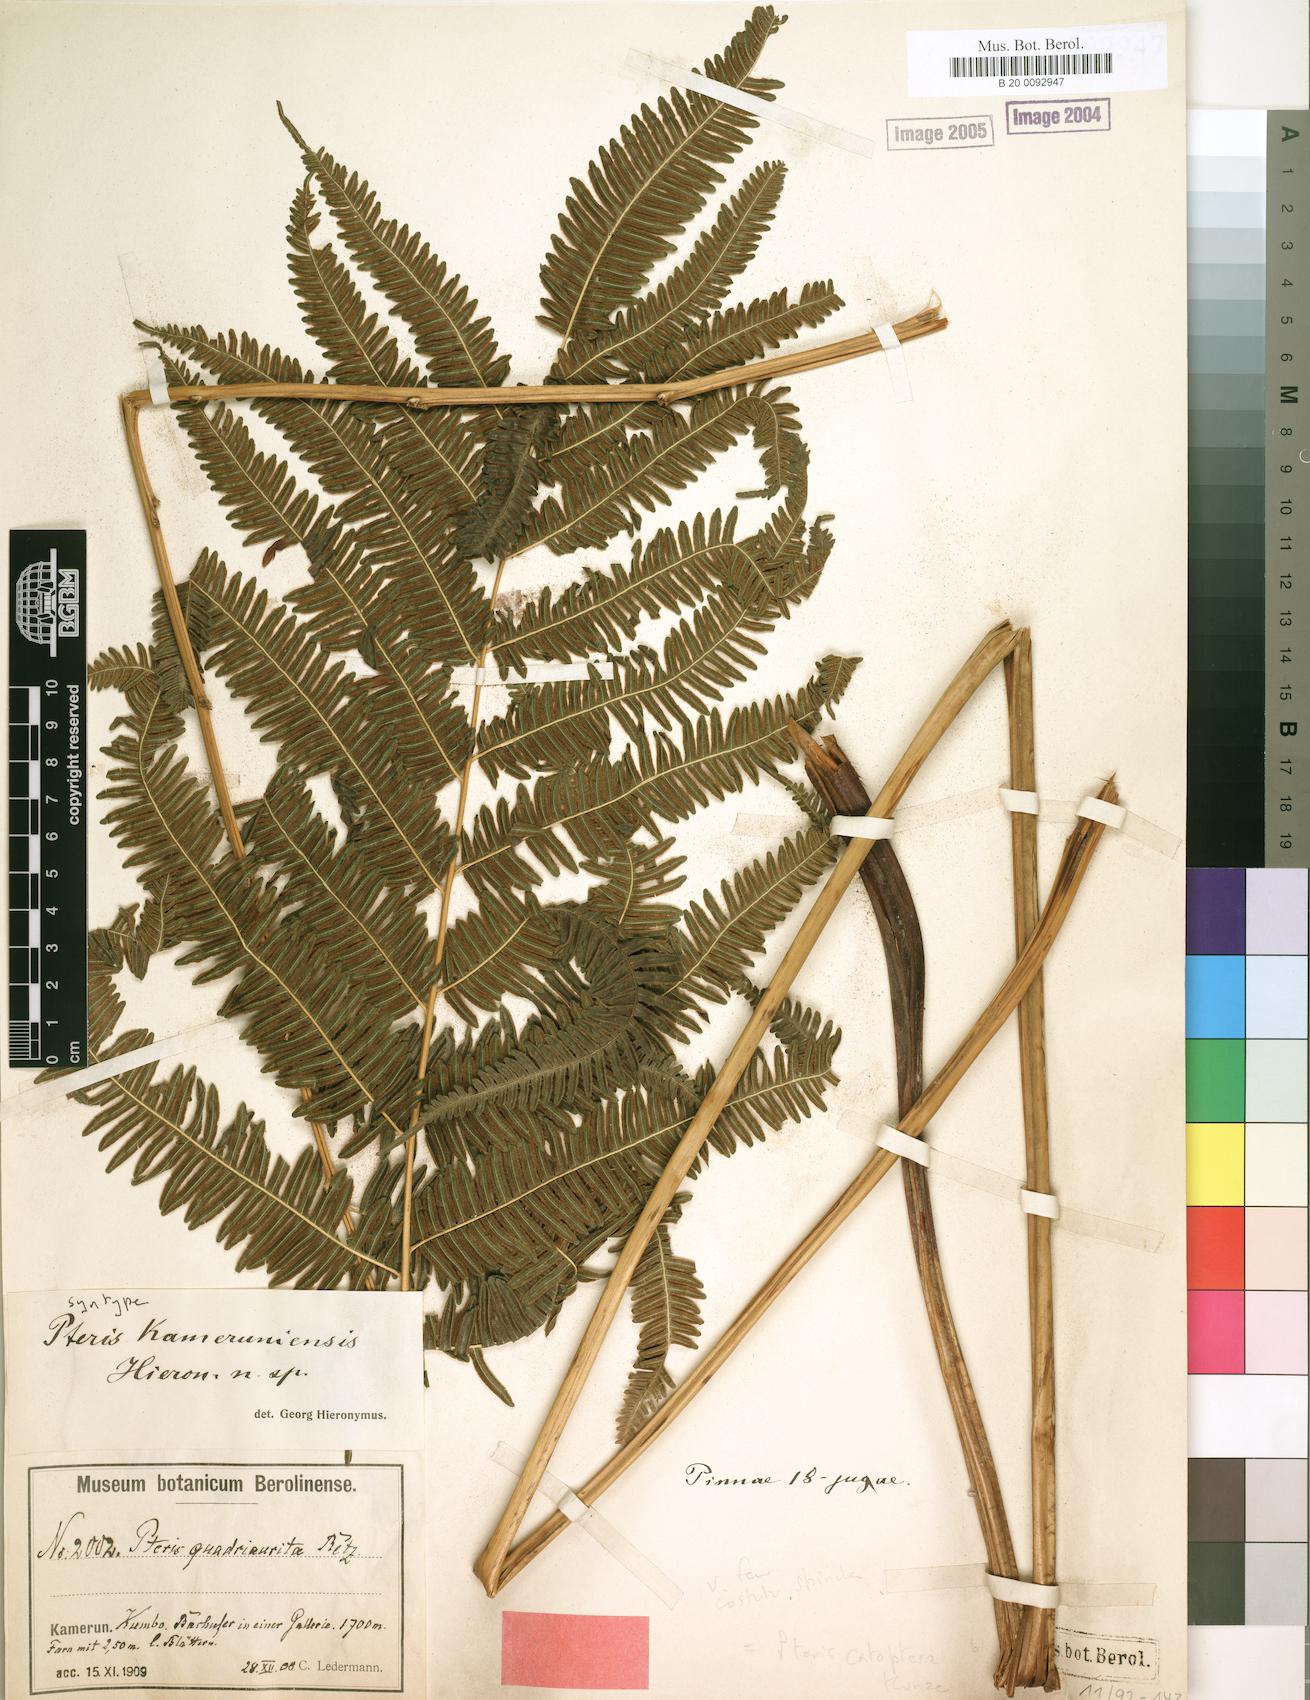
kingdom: Plantae
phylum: Tracheophyta
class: Polypodiopsida
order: Polypodiales
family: Pteridaceae
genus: Pteris
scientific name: Pteris catoptera
